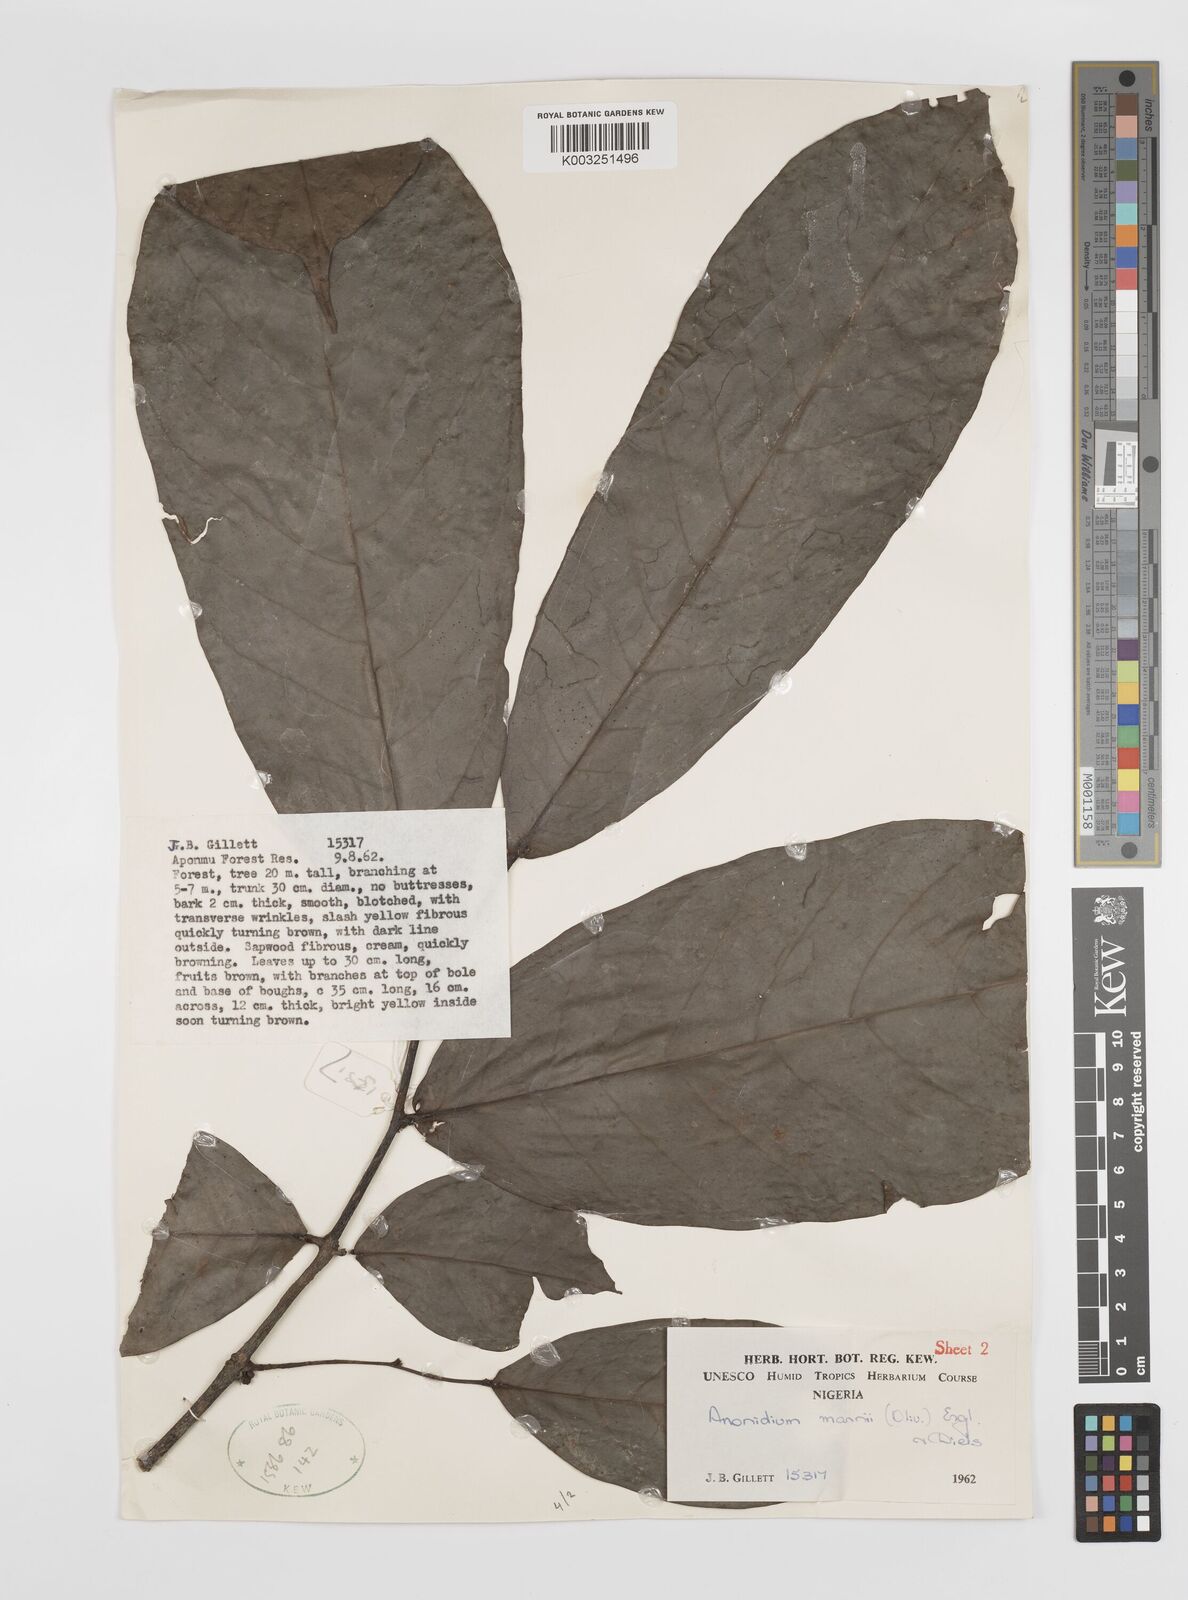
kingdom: Plantae
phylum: Tracheophyta
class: Magnoliopsida
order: Magnoliales
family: Annonaceae
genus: Anonidium
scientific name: Anonidium mannii
